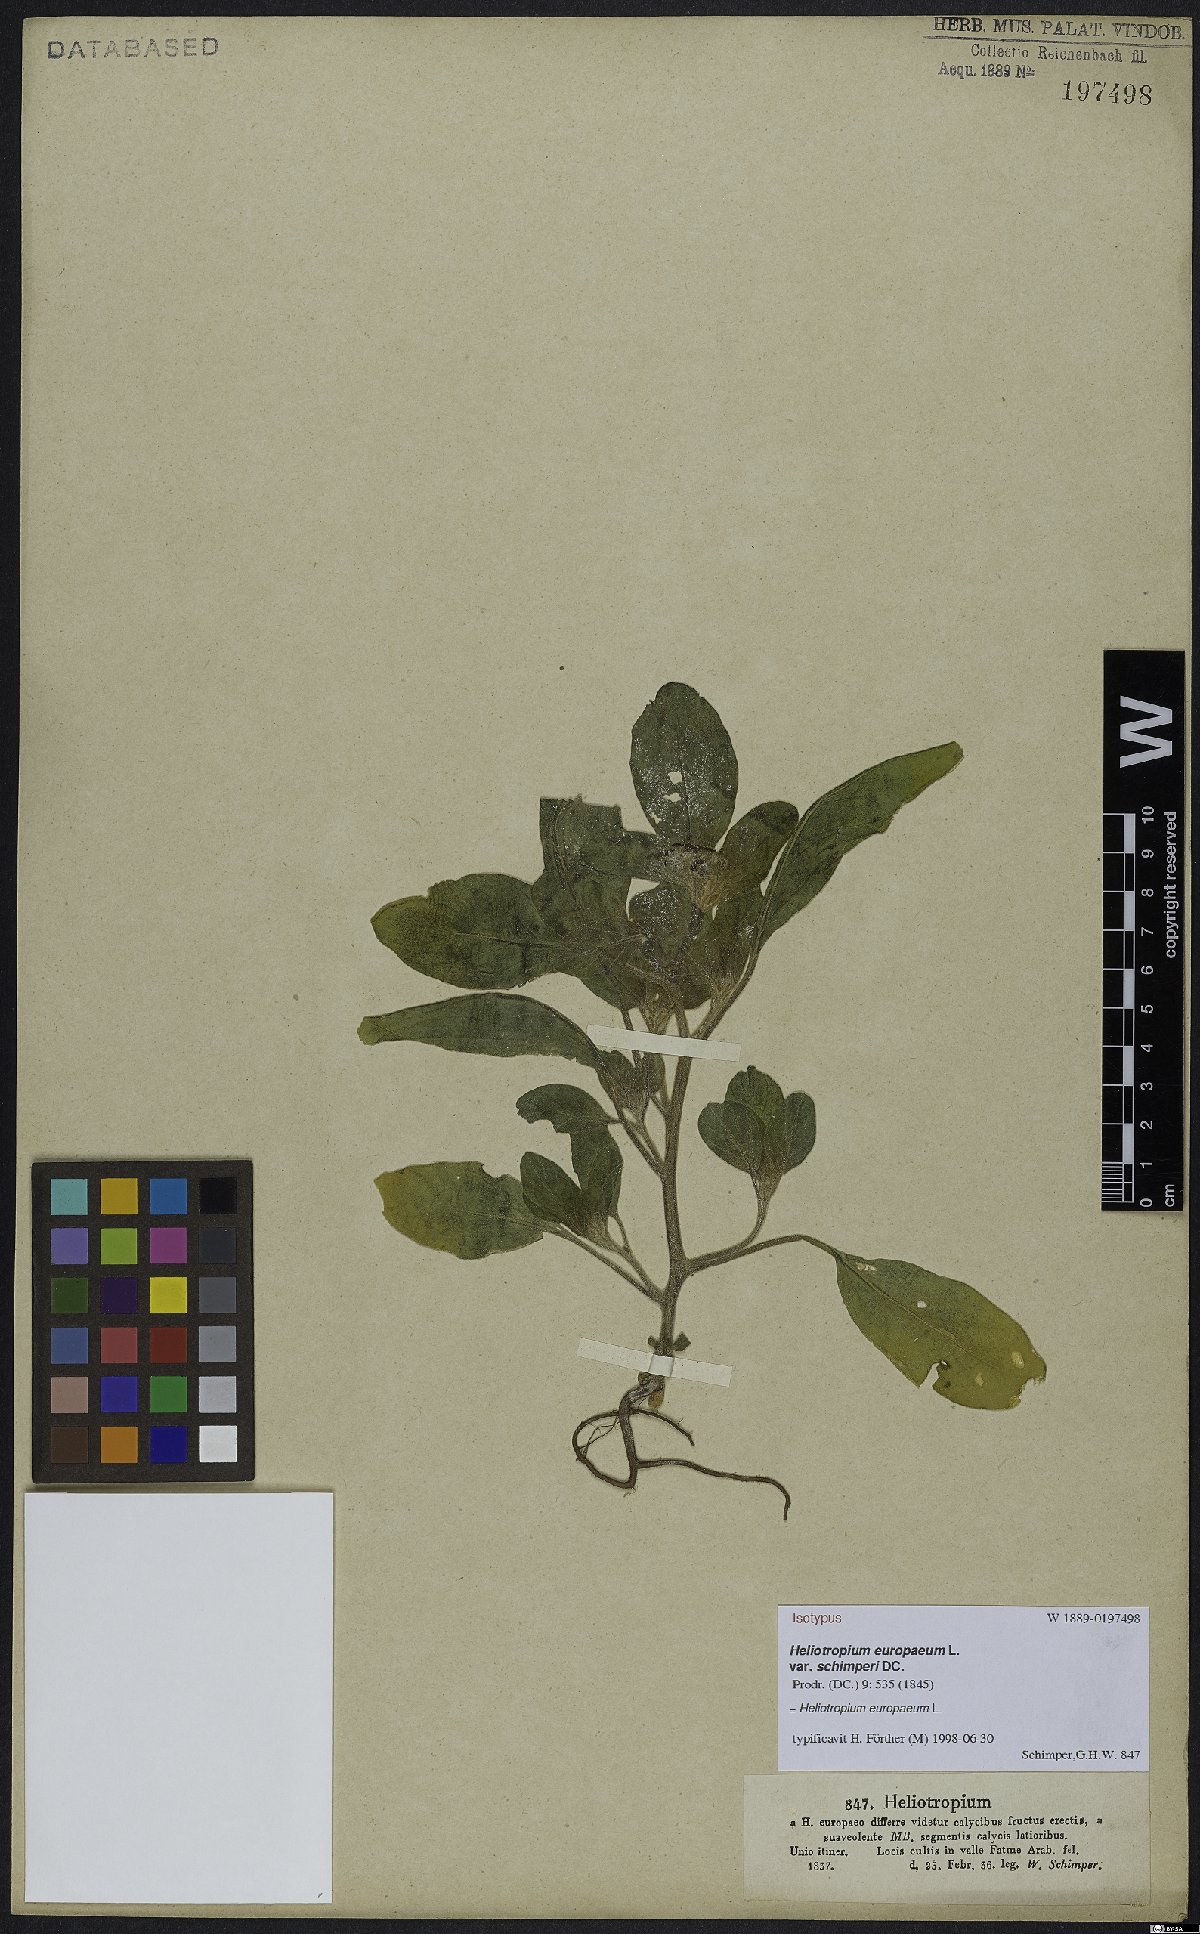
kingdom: Plantae
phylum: Tracheophyta
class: Magnoliopsida
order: Boraginales
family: Heliotropiaceae
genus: Heliotropium
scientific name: Heliotropium europaeum
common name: European heliotrope
